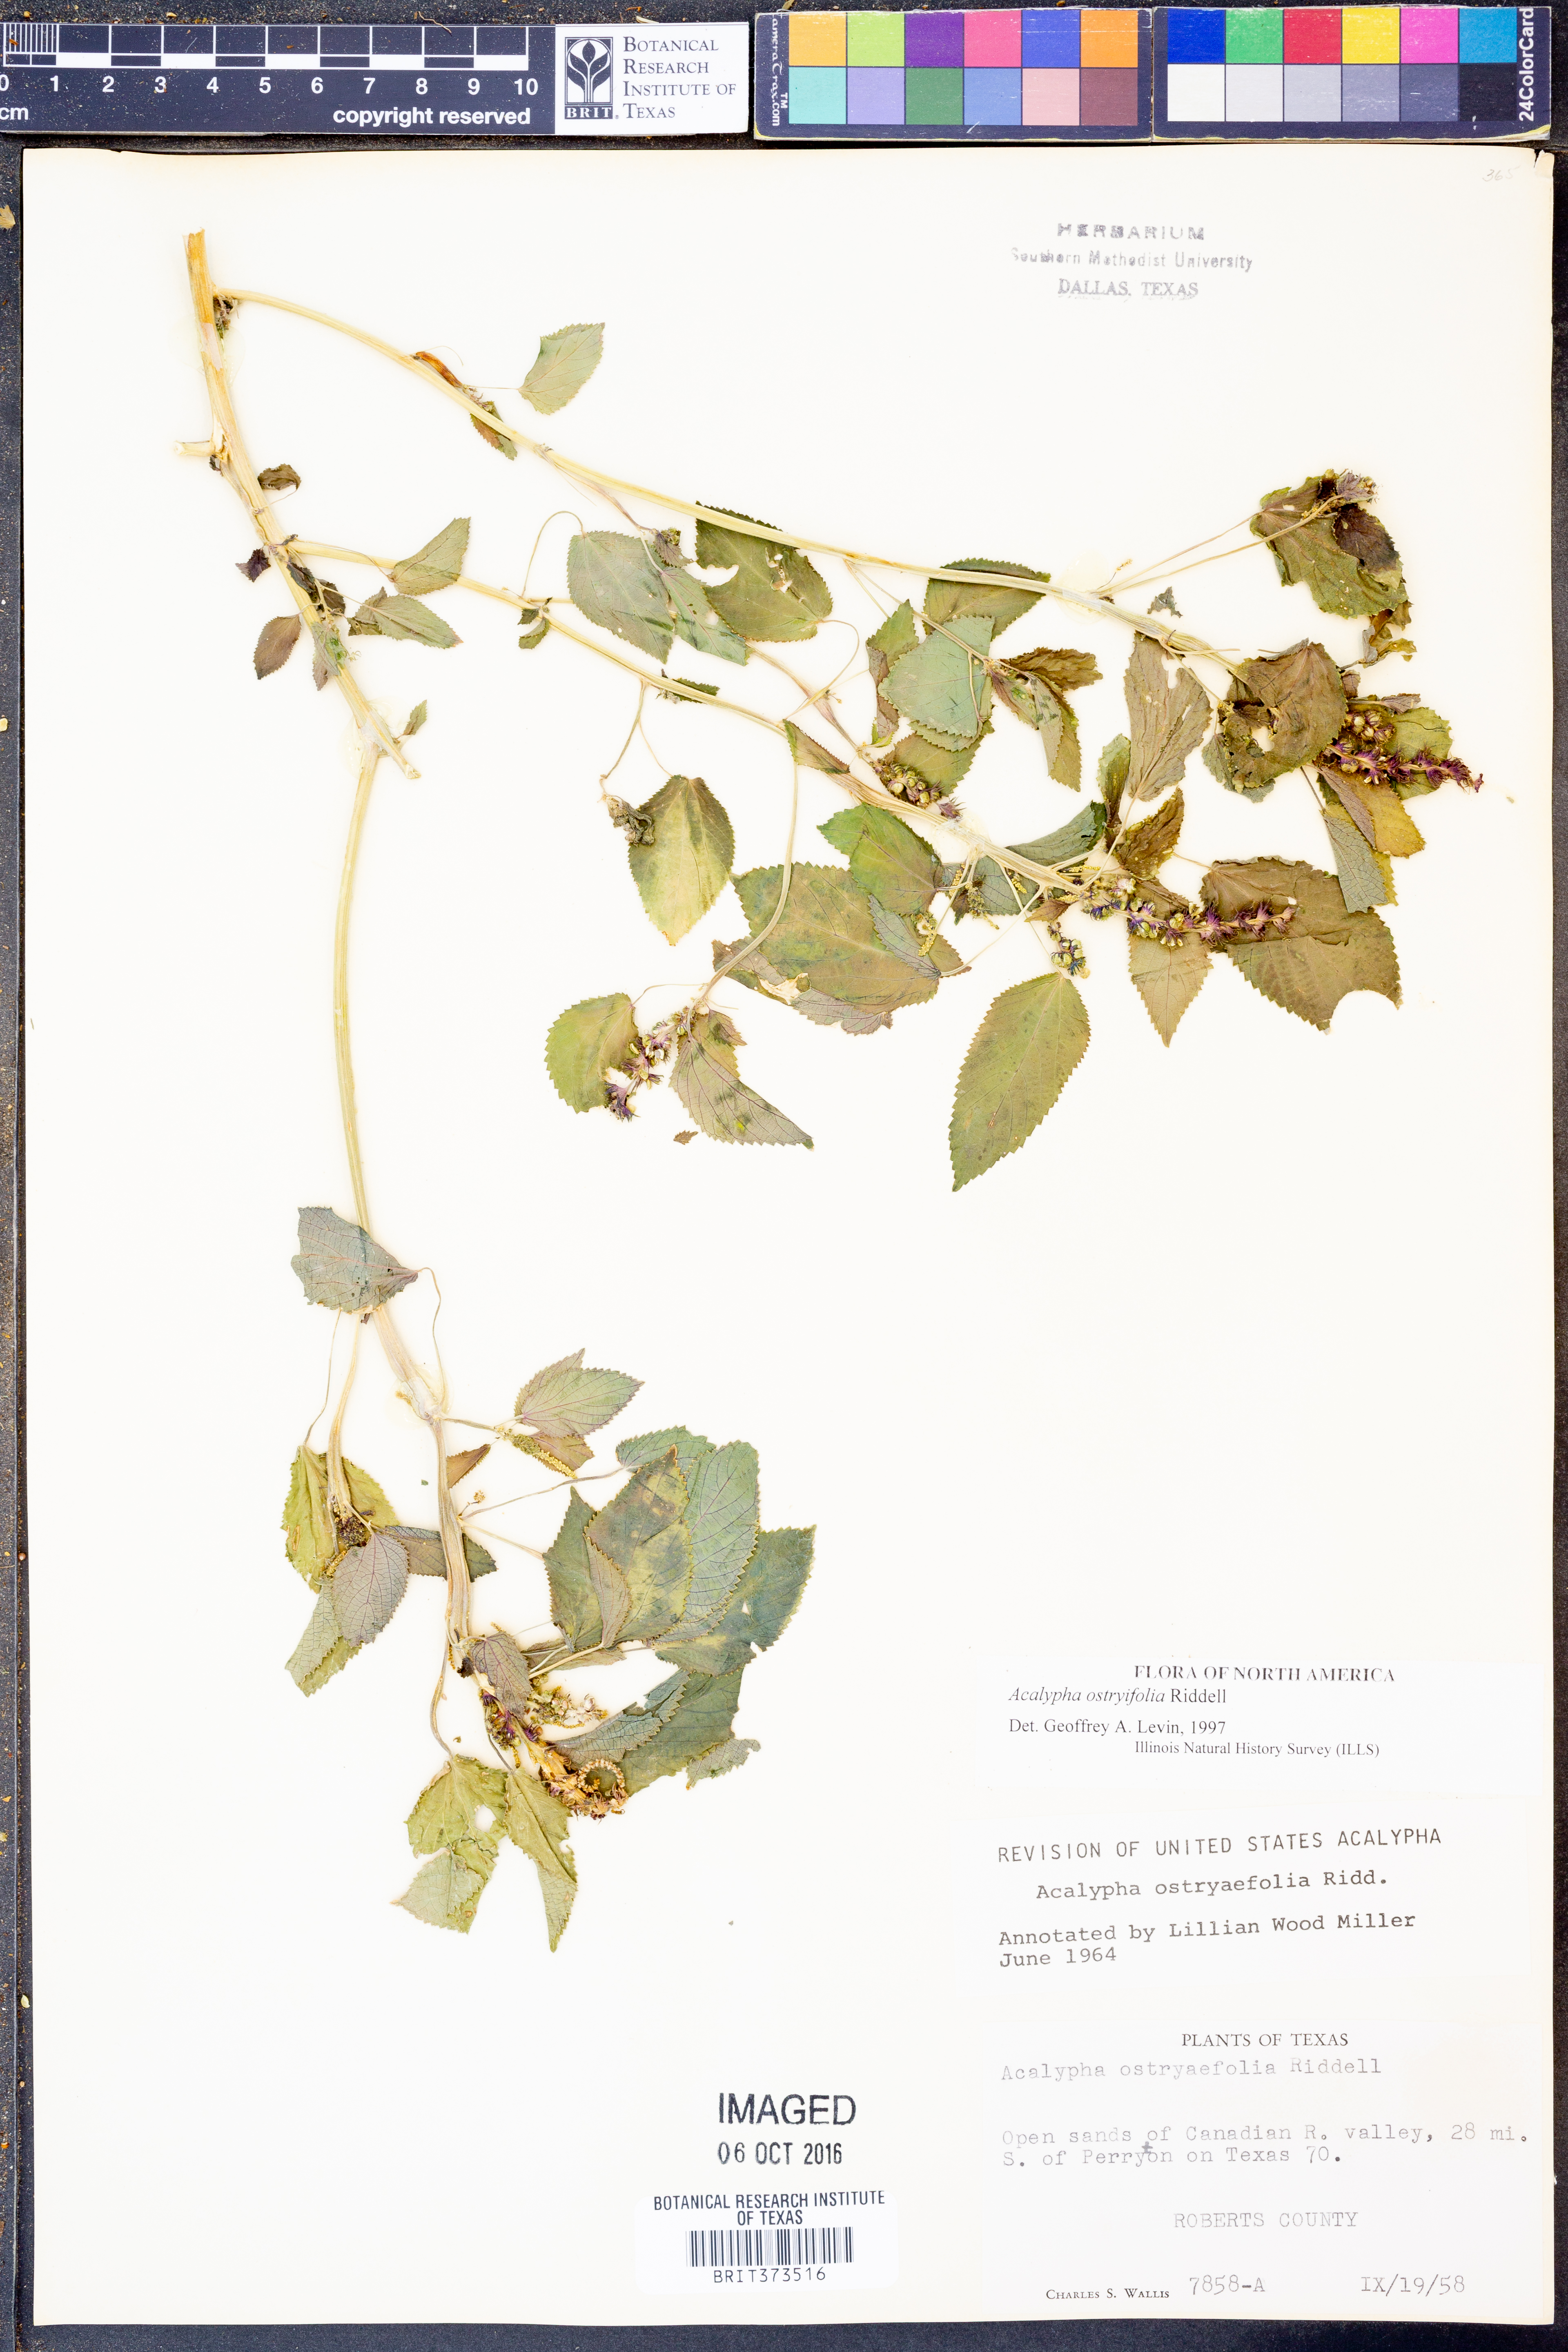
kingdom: Plantae
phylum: Tracheophyta
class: Magnoliopsida
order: Malpighiales
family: Euphorbiaceae
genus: Acalypha
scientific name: Acalypha persimilis
